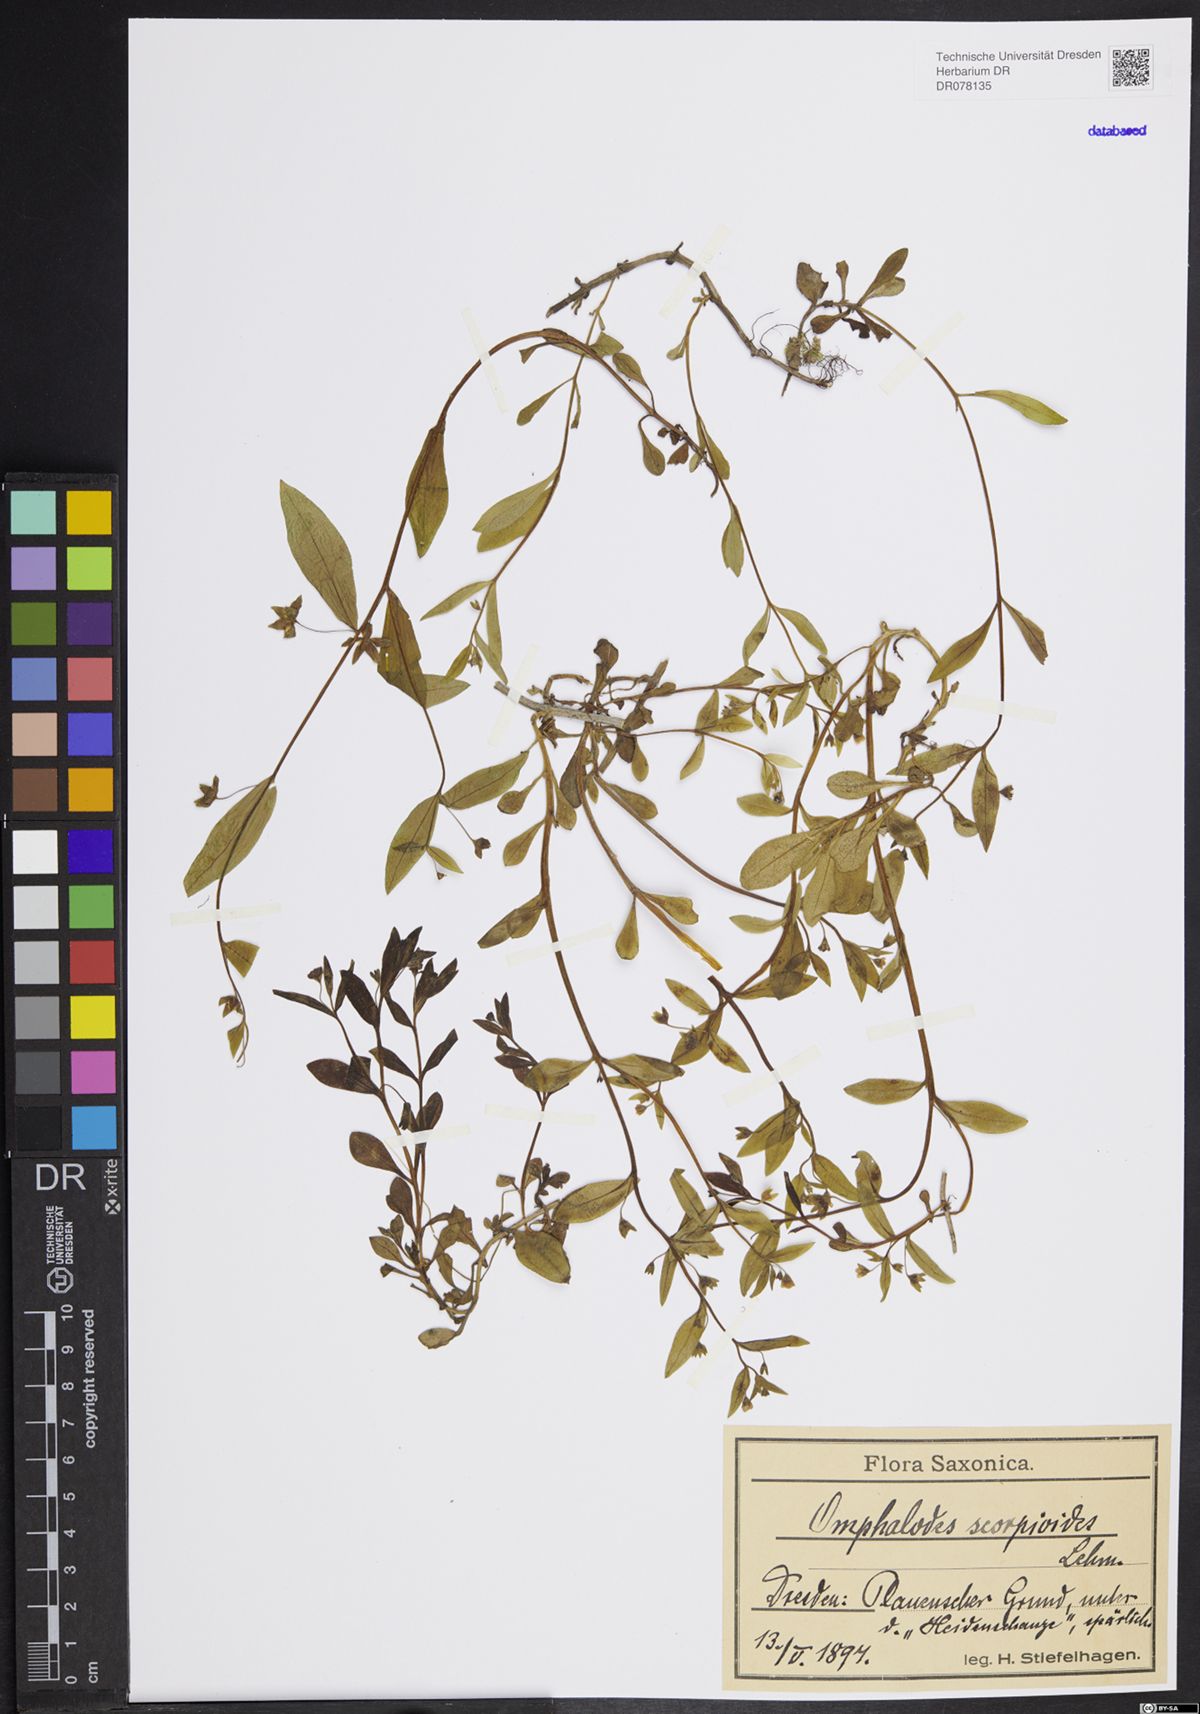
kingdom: Plantae
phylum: Tracheophyta
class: Magnoliopsida
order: Boraginales
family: Boraginaceae
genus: Memoremea
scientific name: Memoremea scorpioides
